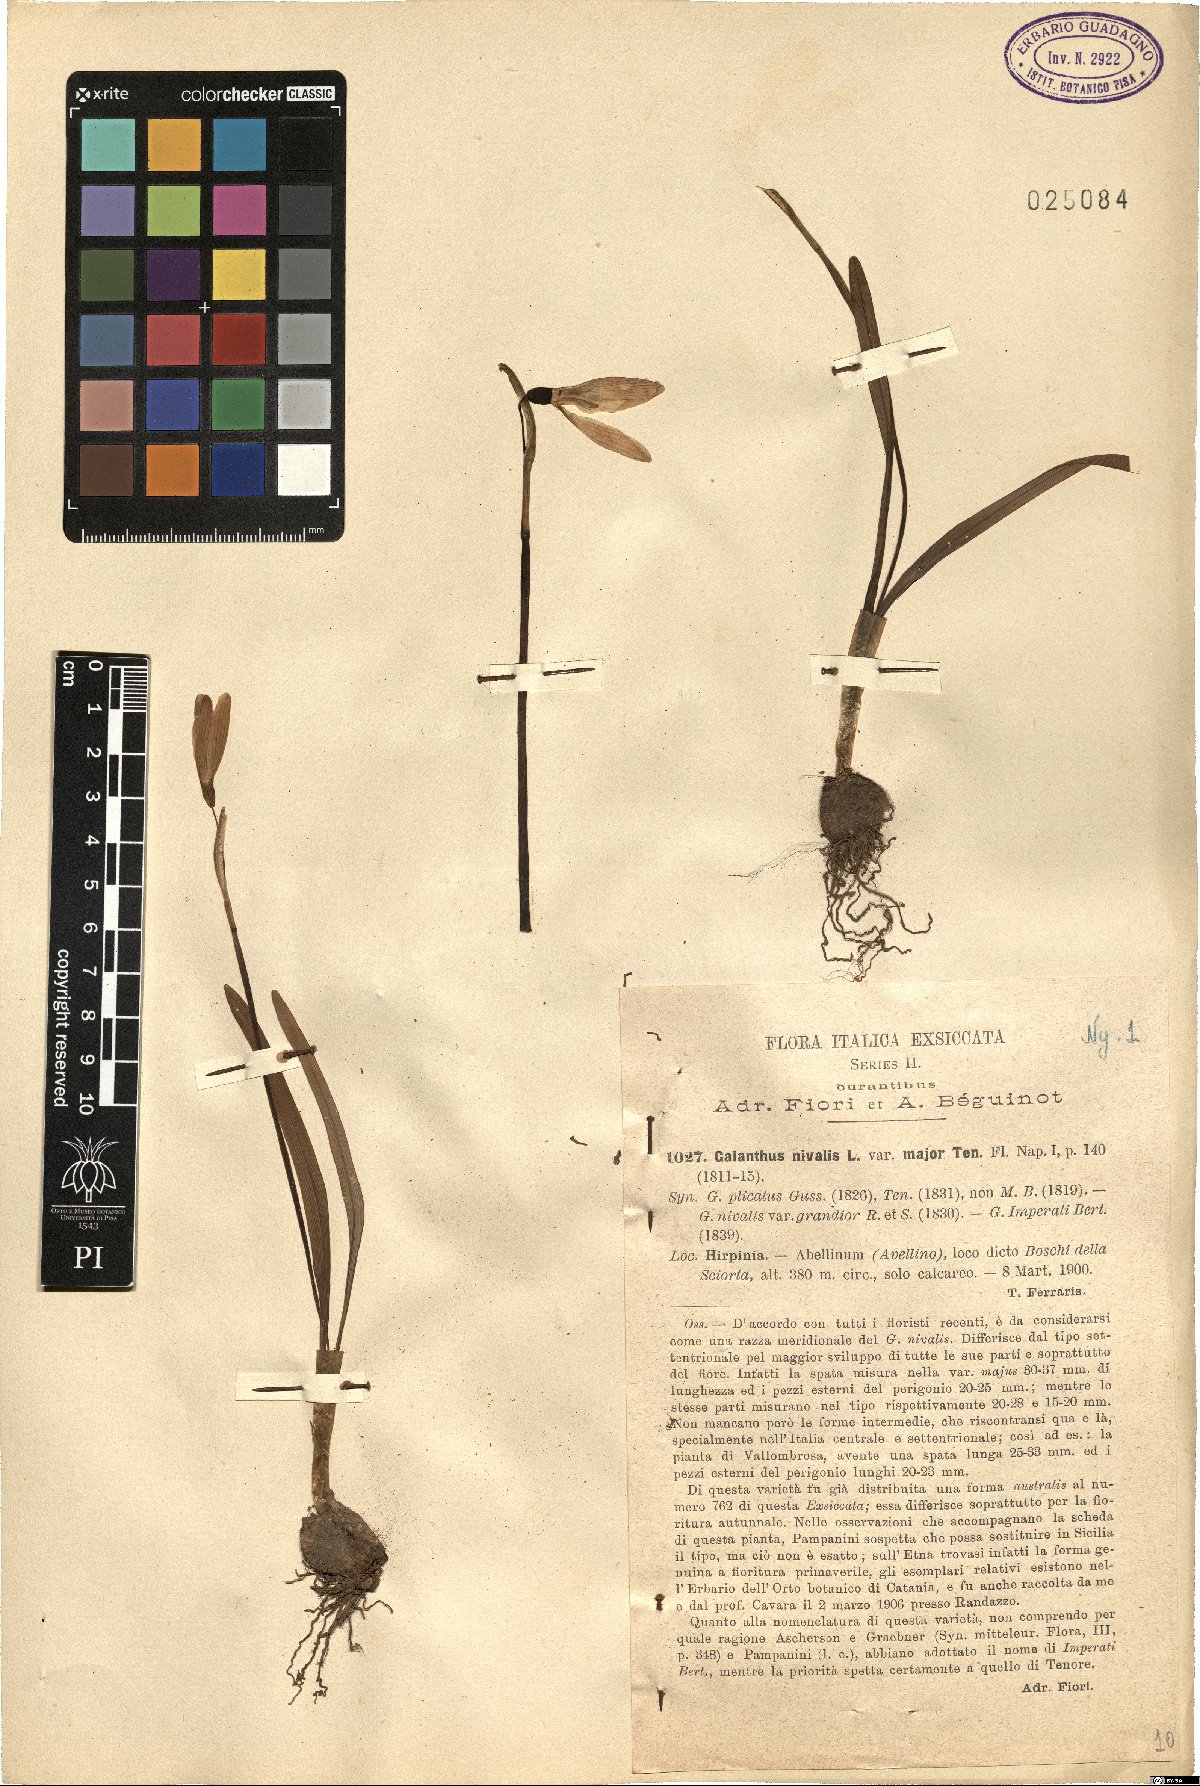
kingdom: Plantae
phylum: Tracheophyta
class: Liliopsida
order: Asparagales
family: Amaryllidaceae
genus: Galanthus
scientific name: Galanthus nivalis
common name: Snowdrop
